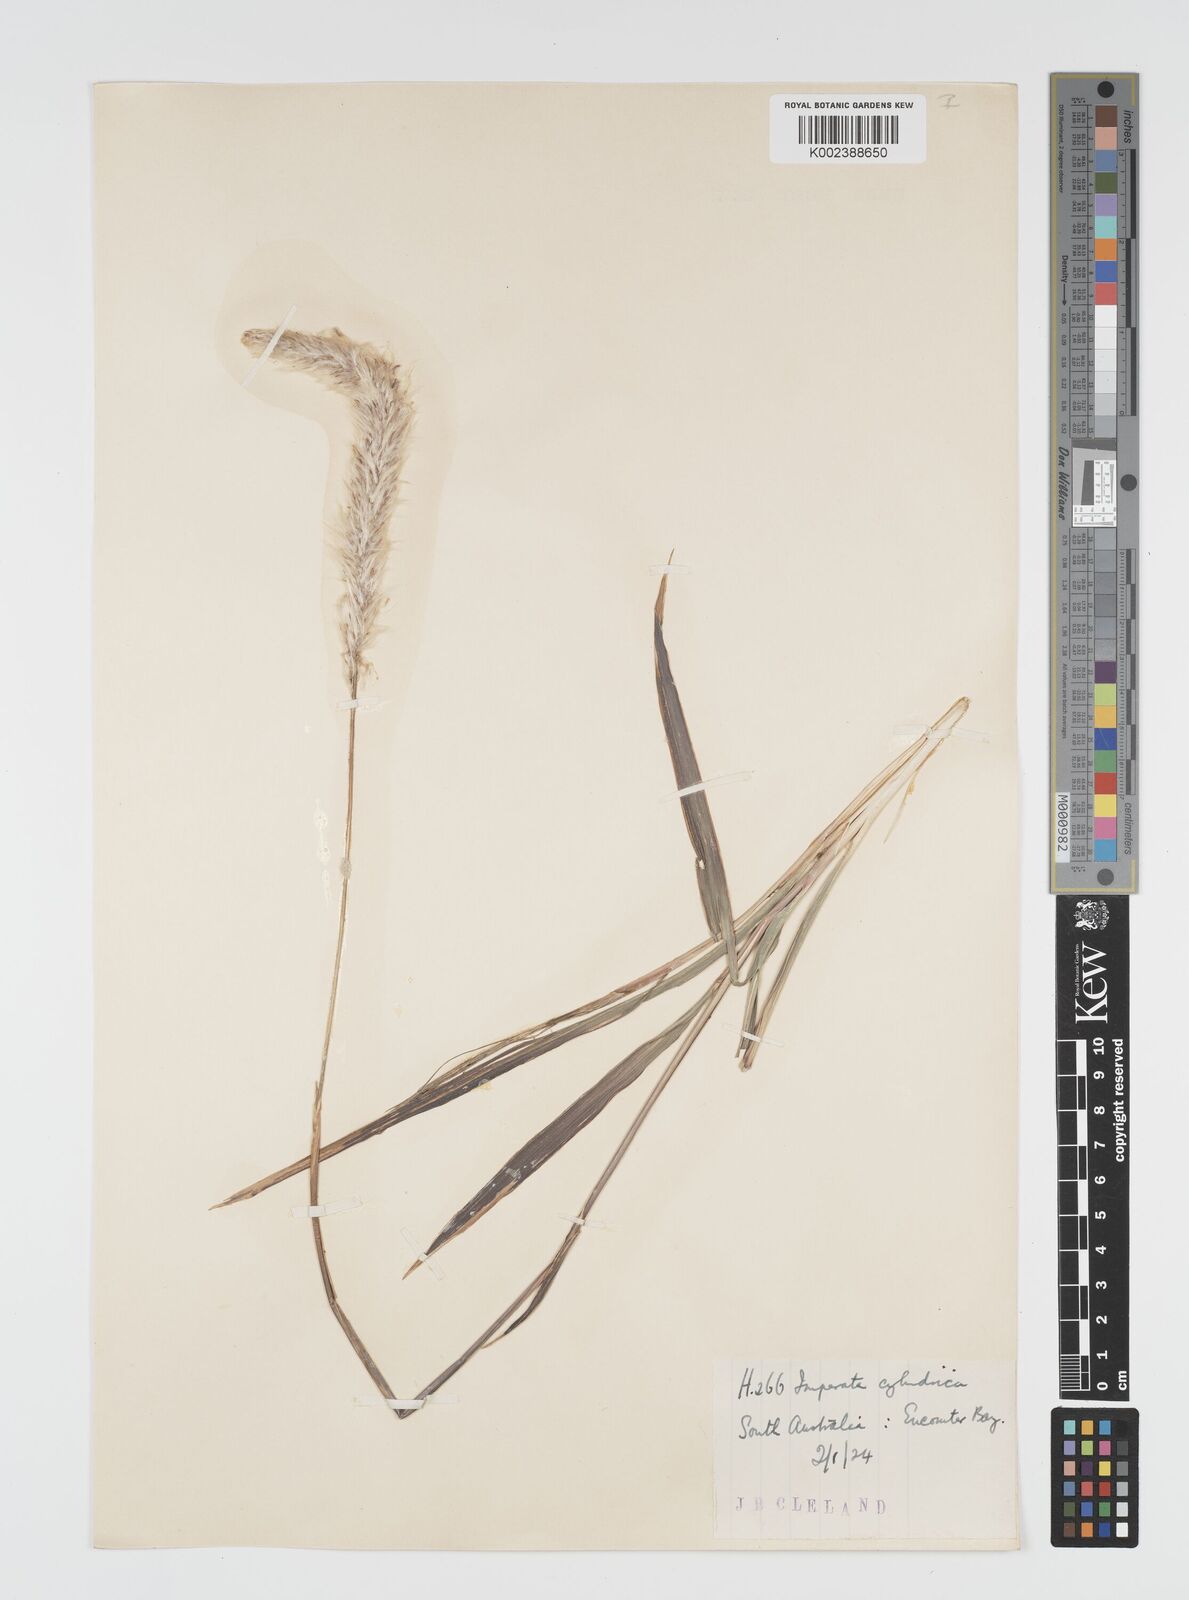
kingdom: Plantae
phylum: Tracheophyta
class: Liliopsida
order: Poales
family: Poaceae
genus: Imperata
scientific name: Imperata cylindrica
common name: Cogongrass
